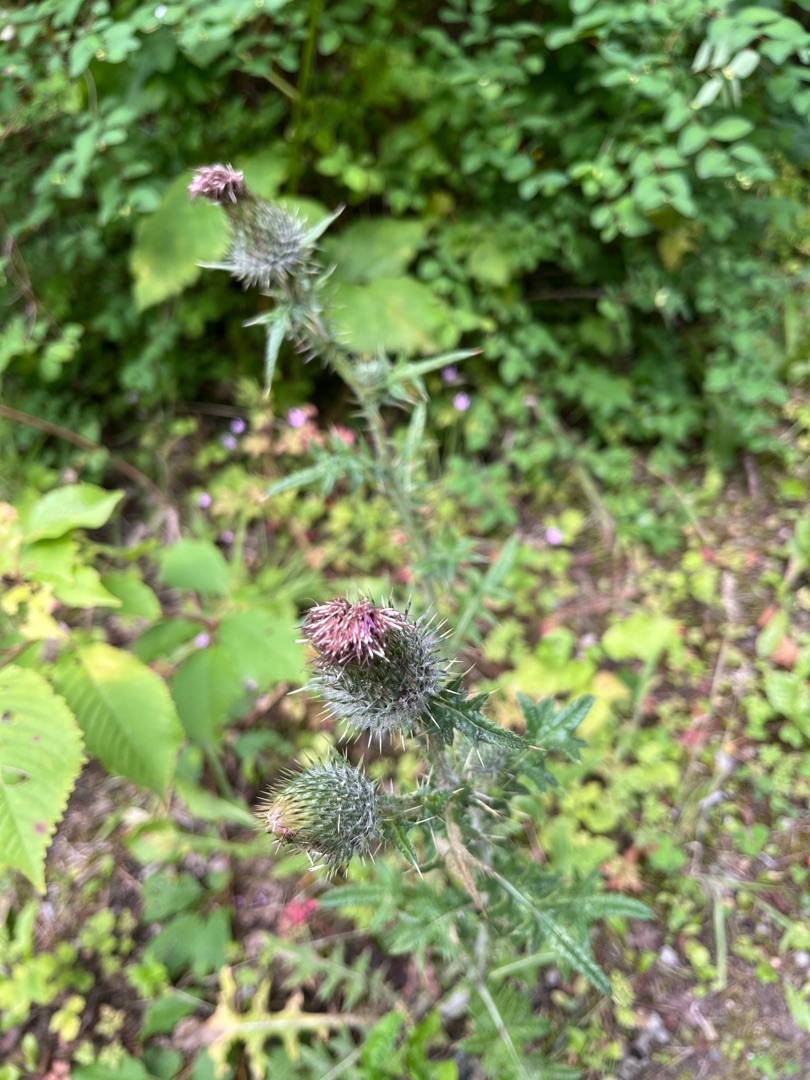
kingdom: Plantae
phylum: Tracheophyta
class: Magnoliopsida
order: Asterales
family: Asteraceae
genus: Cirsium
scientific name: Cirsium vulgare
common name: Horse-tidsel
